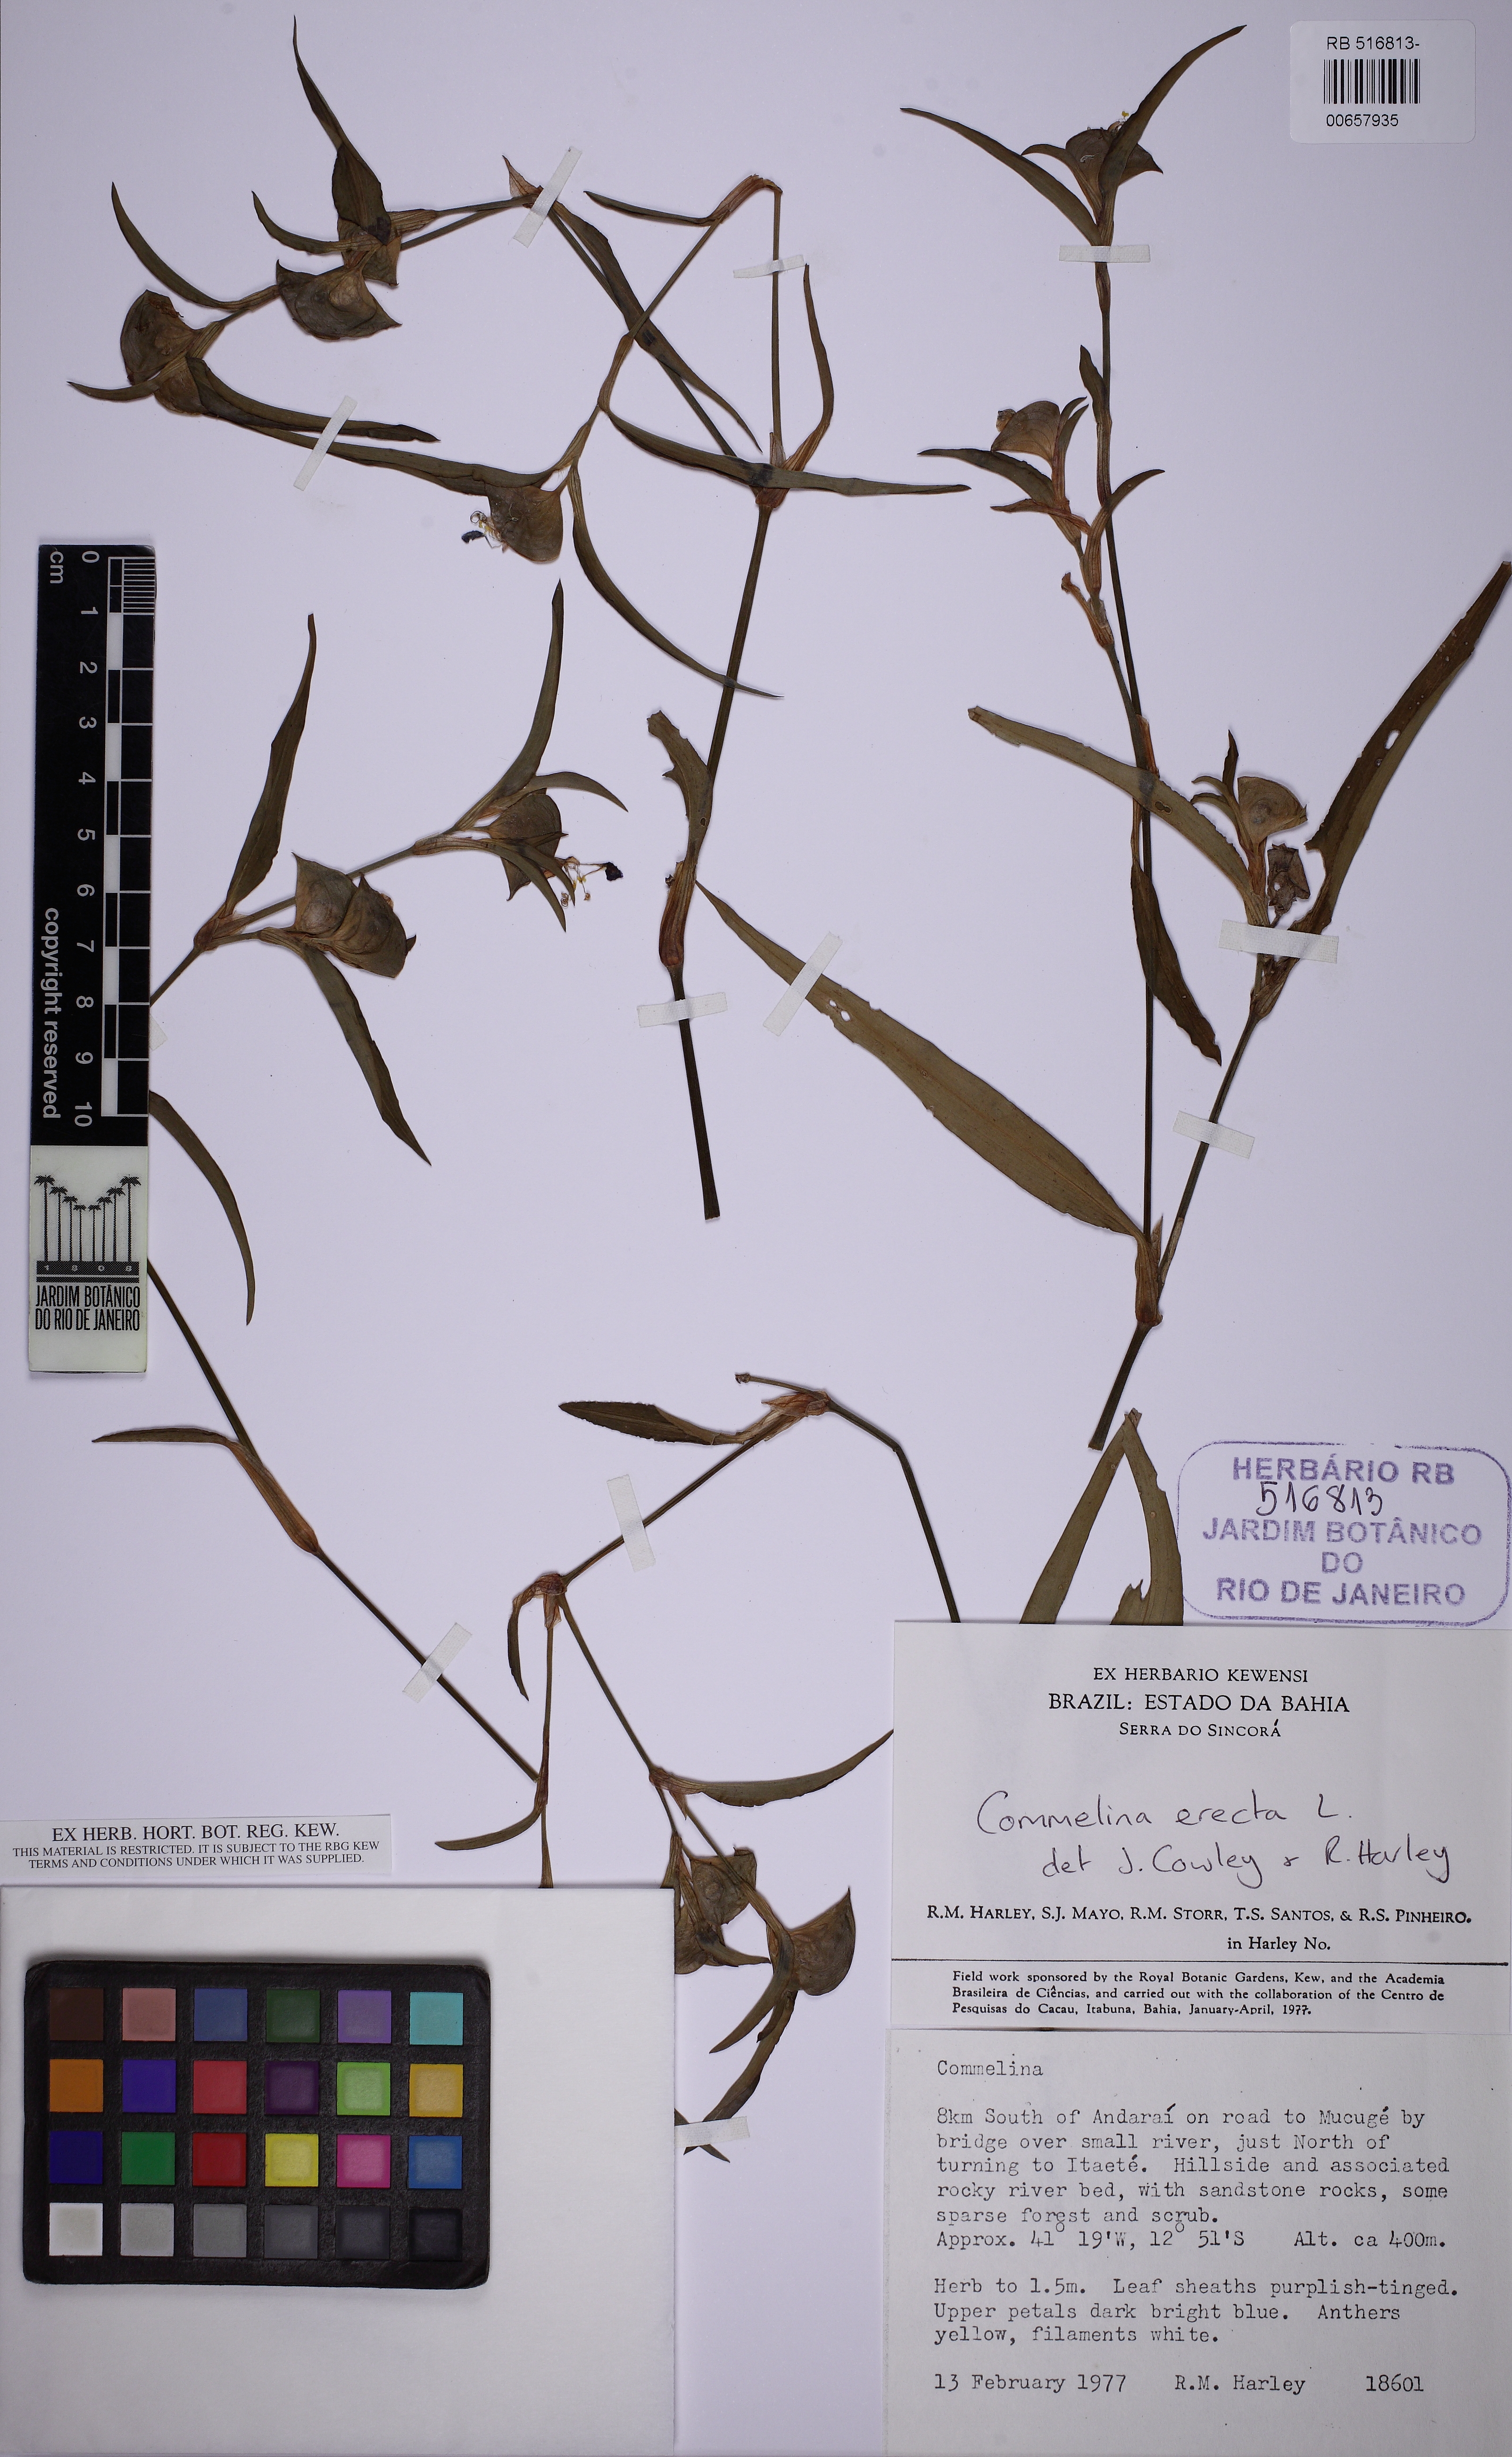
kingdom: Plantae
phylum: Tracheophyta
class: Liliopsida
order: Commelinales
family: Commelinaceae
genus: Commelina
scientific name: Commelina erecta
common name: Blousel blommetjie
